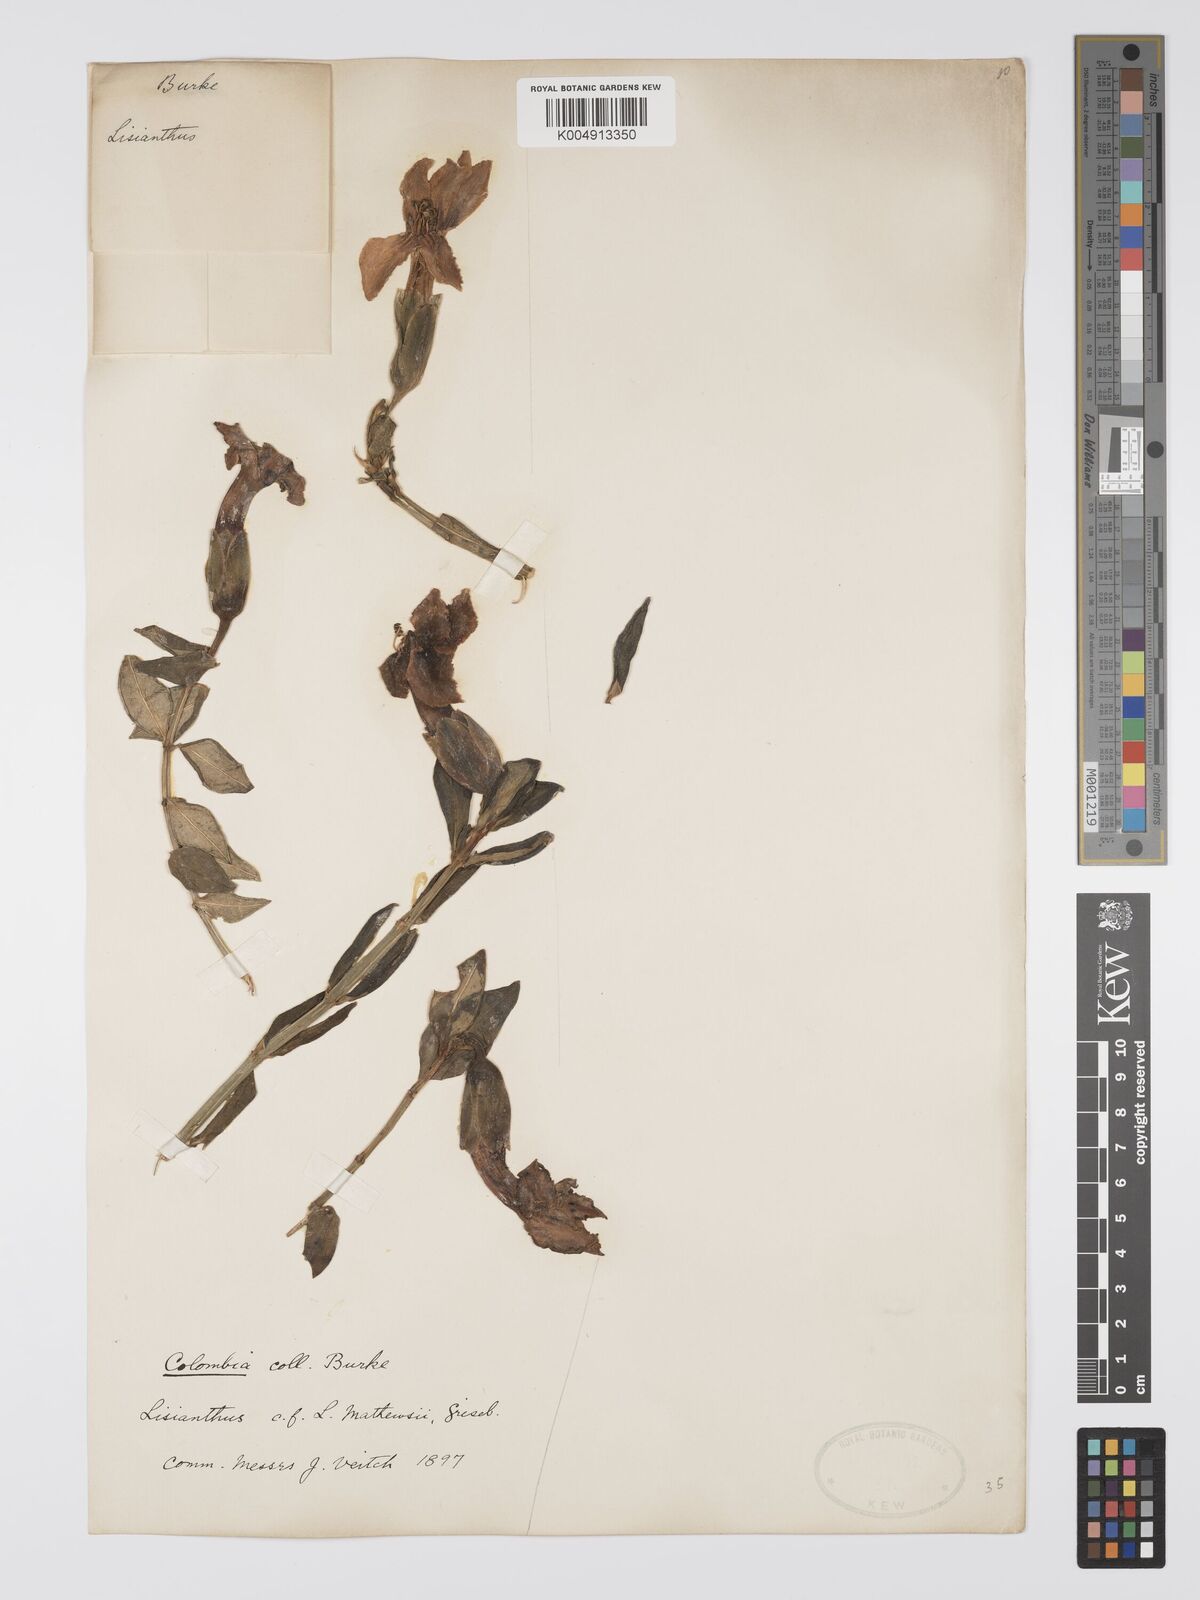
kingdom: Plantae
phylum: Tracheophyta
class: Magnoliopsida
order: Gentianales
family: Gentianaceae
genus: Symbolanthus
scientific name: Symbolanthus mathewsii
